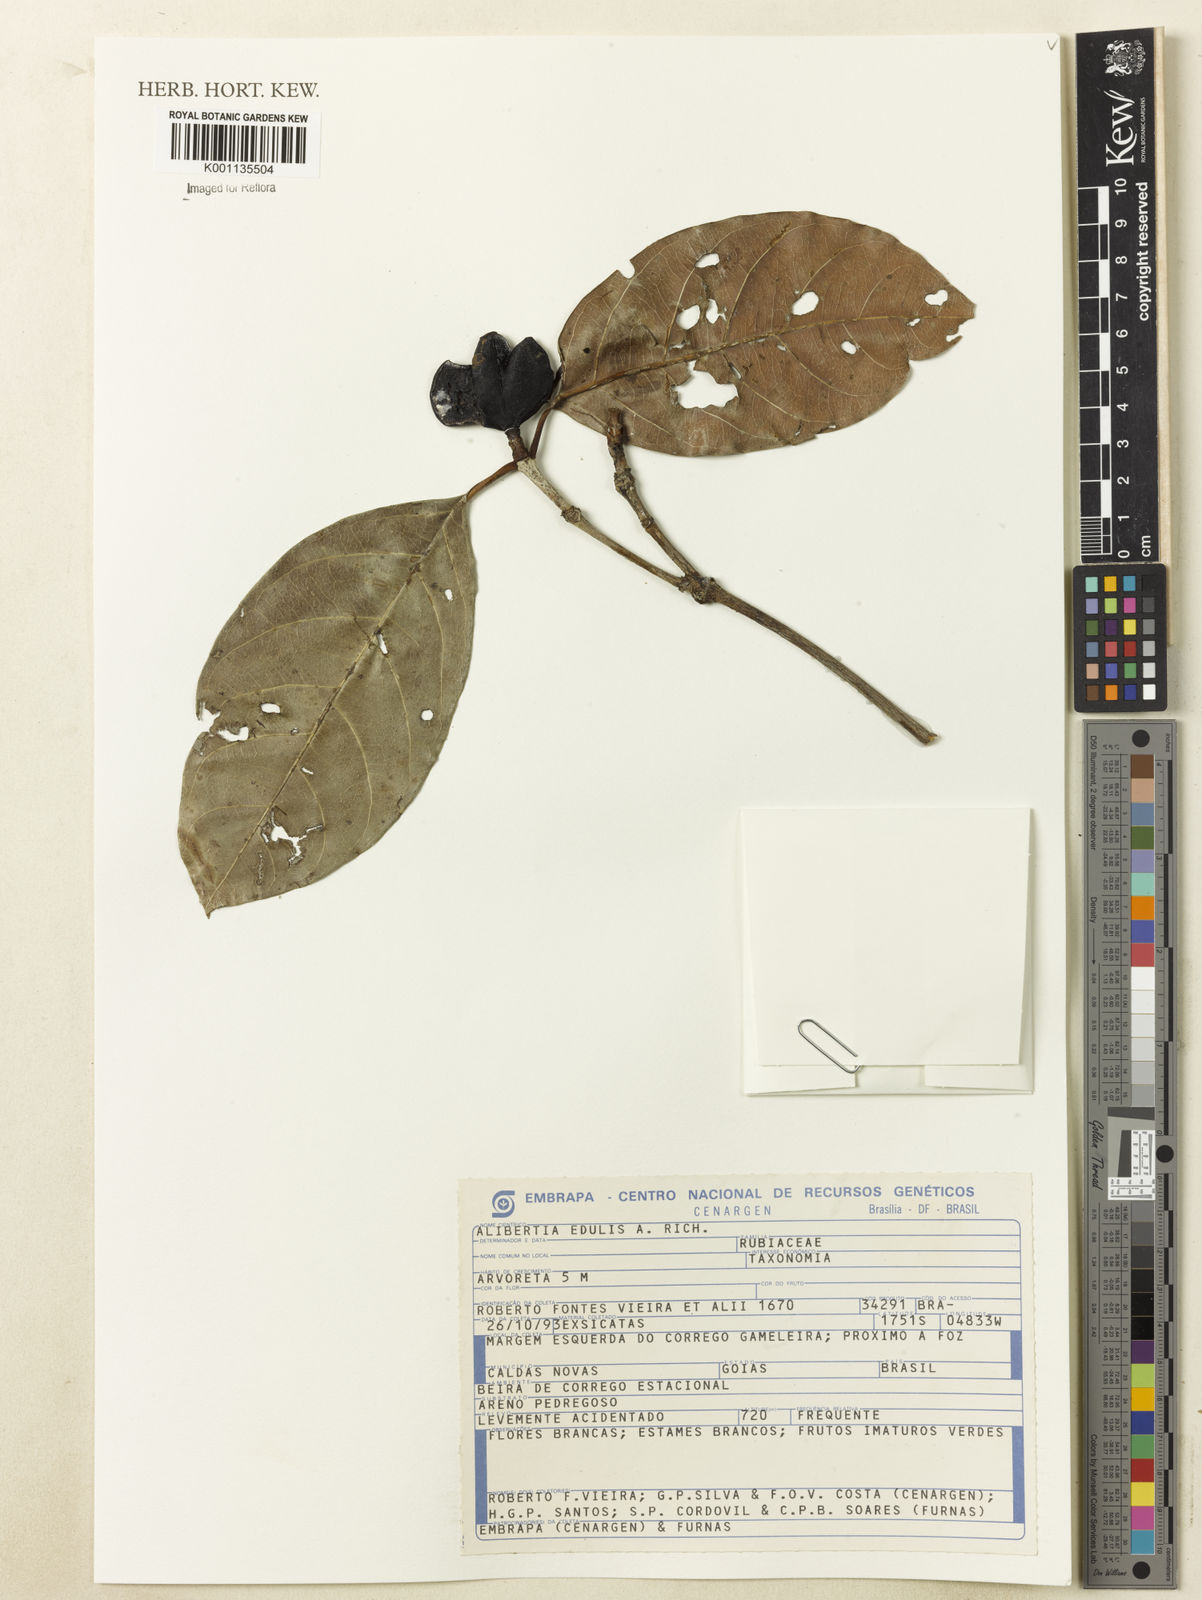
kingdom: Plantae
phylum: Tracheophyta
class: Magnoliopsida
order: Gentianales
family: Rubiaceae
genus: Cordiera
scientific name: Cordiera sessilis
